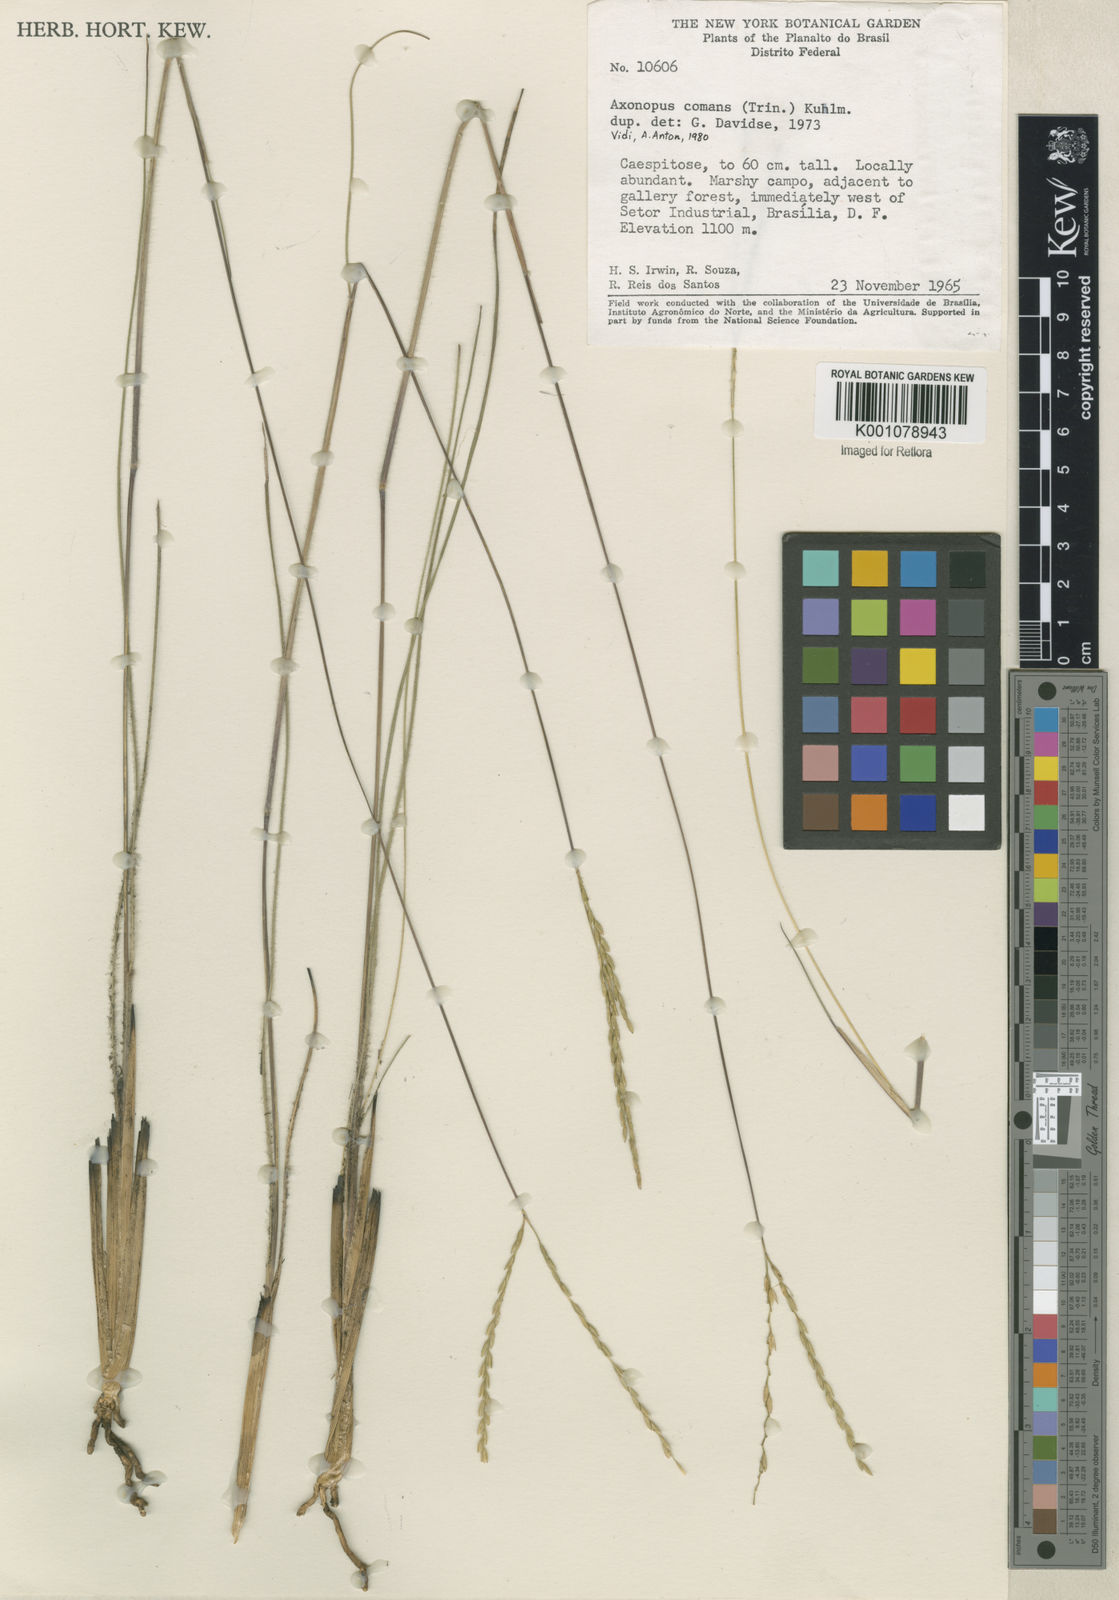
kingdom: Plantae
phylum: Tracheophyta
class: Liliopsida
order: Poales
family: Poaceae
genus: Axonopus
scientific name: Axonopus
